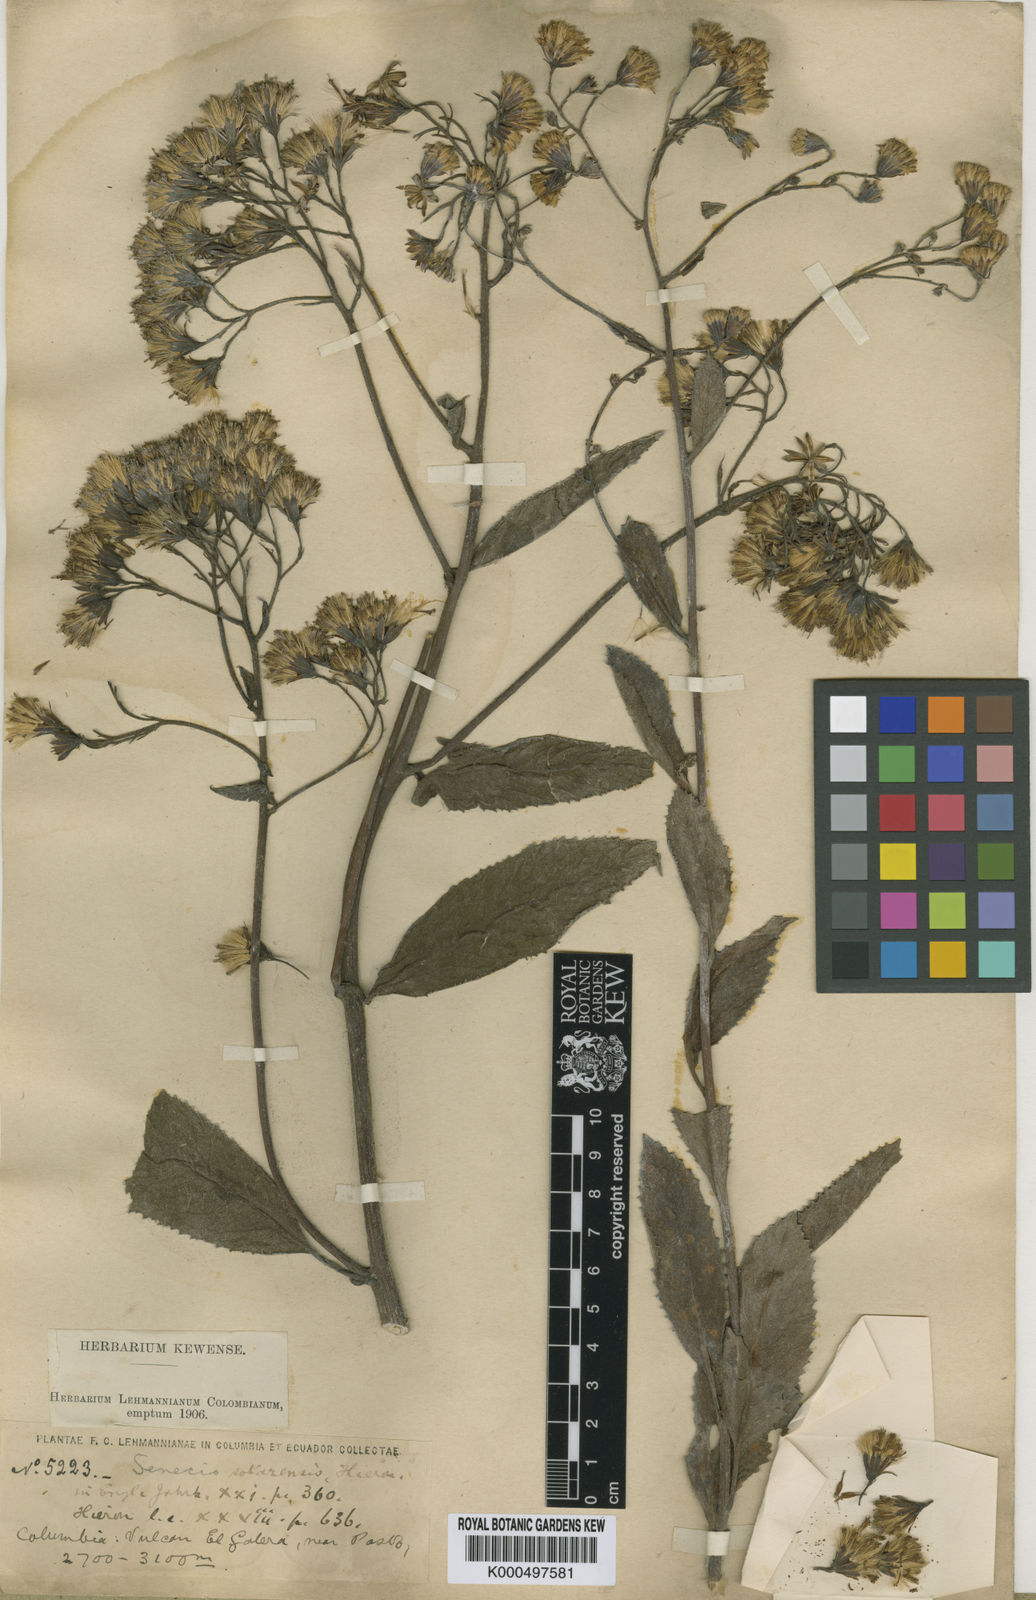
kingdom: Plantae
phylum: Tracheophyta
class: Magnoliopsida
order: Asterales
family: Asteraceae
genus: Dendrophorbium
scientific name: Dendrophorbium sotarense
